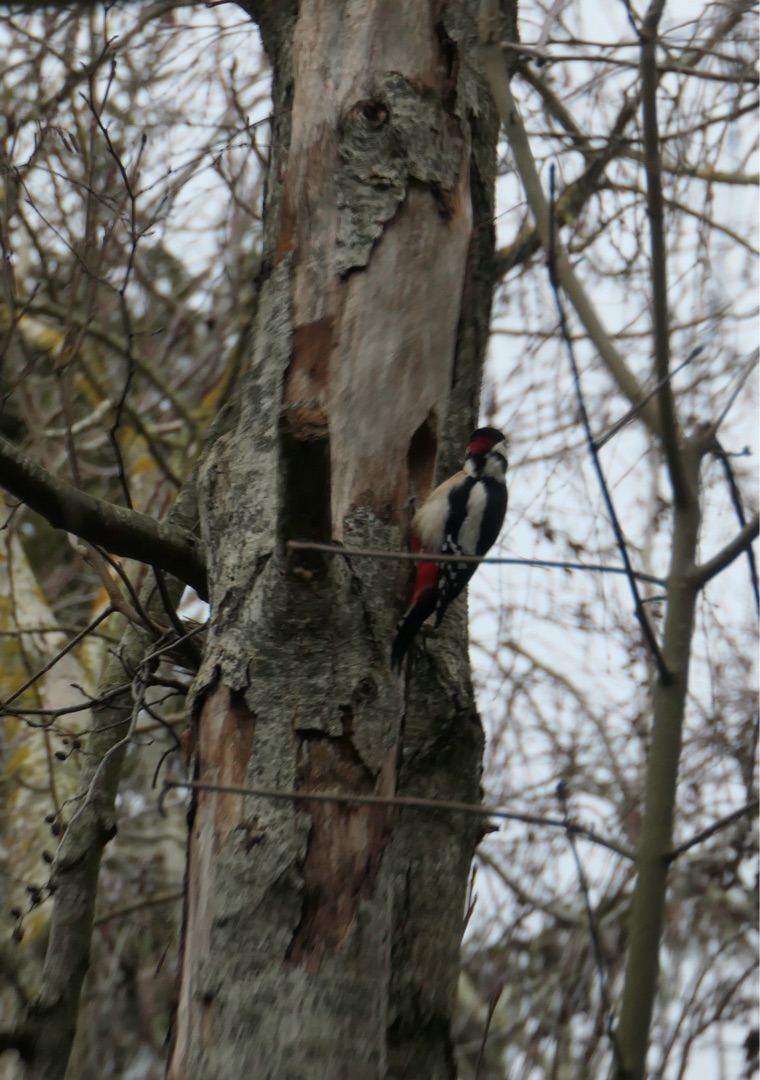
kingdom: Animalia
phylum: Chordata
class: Aves
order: Piciformes
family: Picidae
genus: Dendrocopos
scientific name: Dendrocopos major
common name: Stor flagspætte
